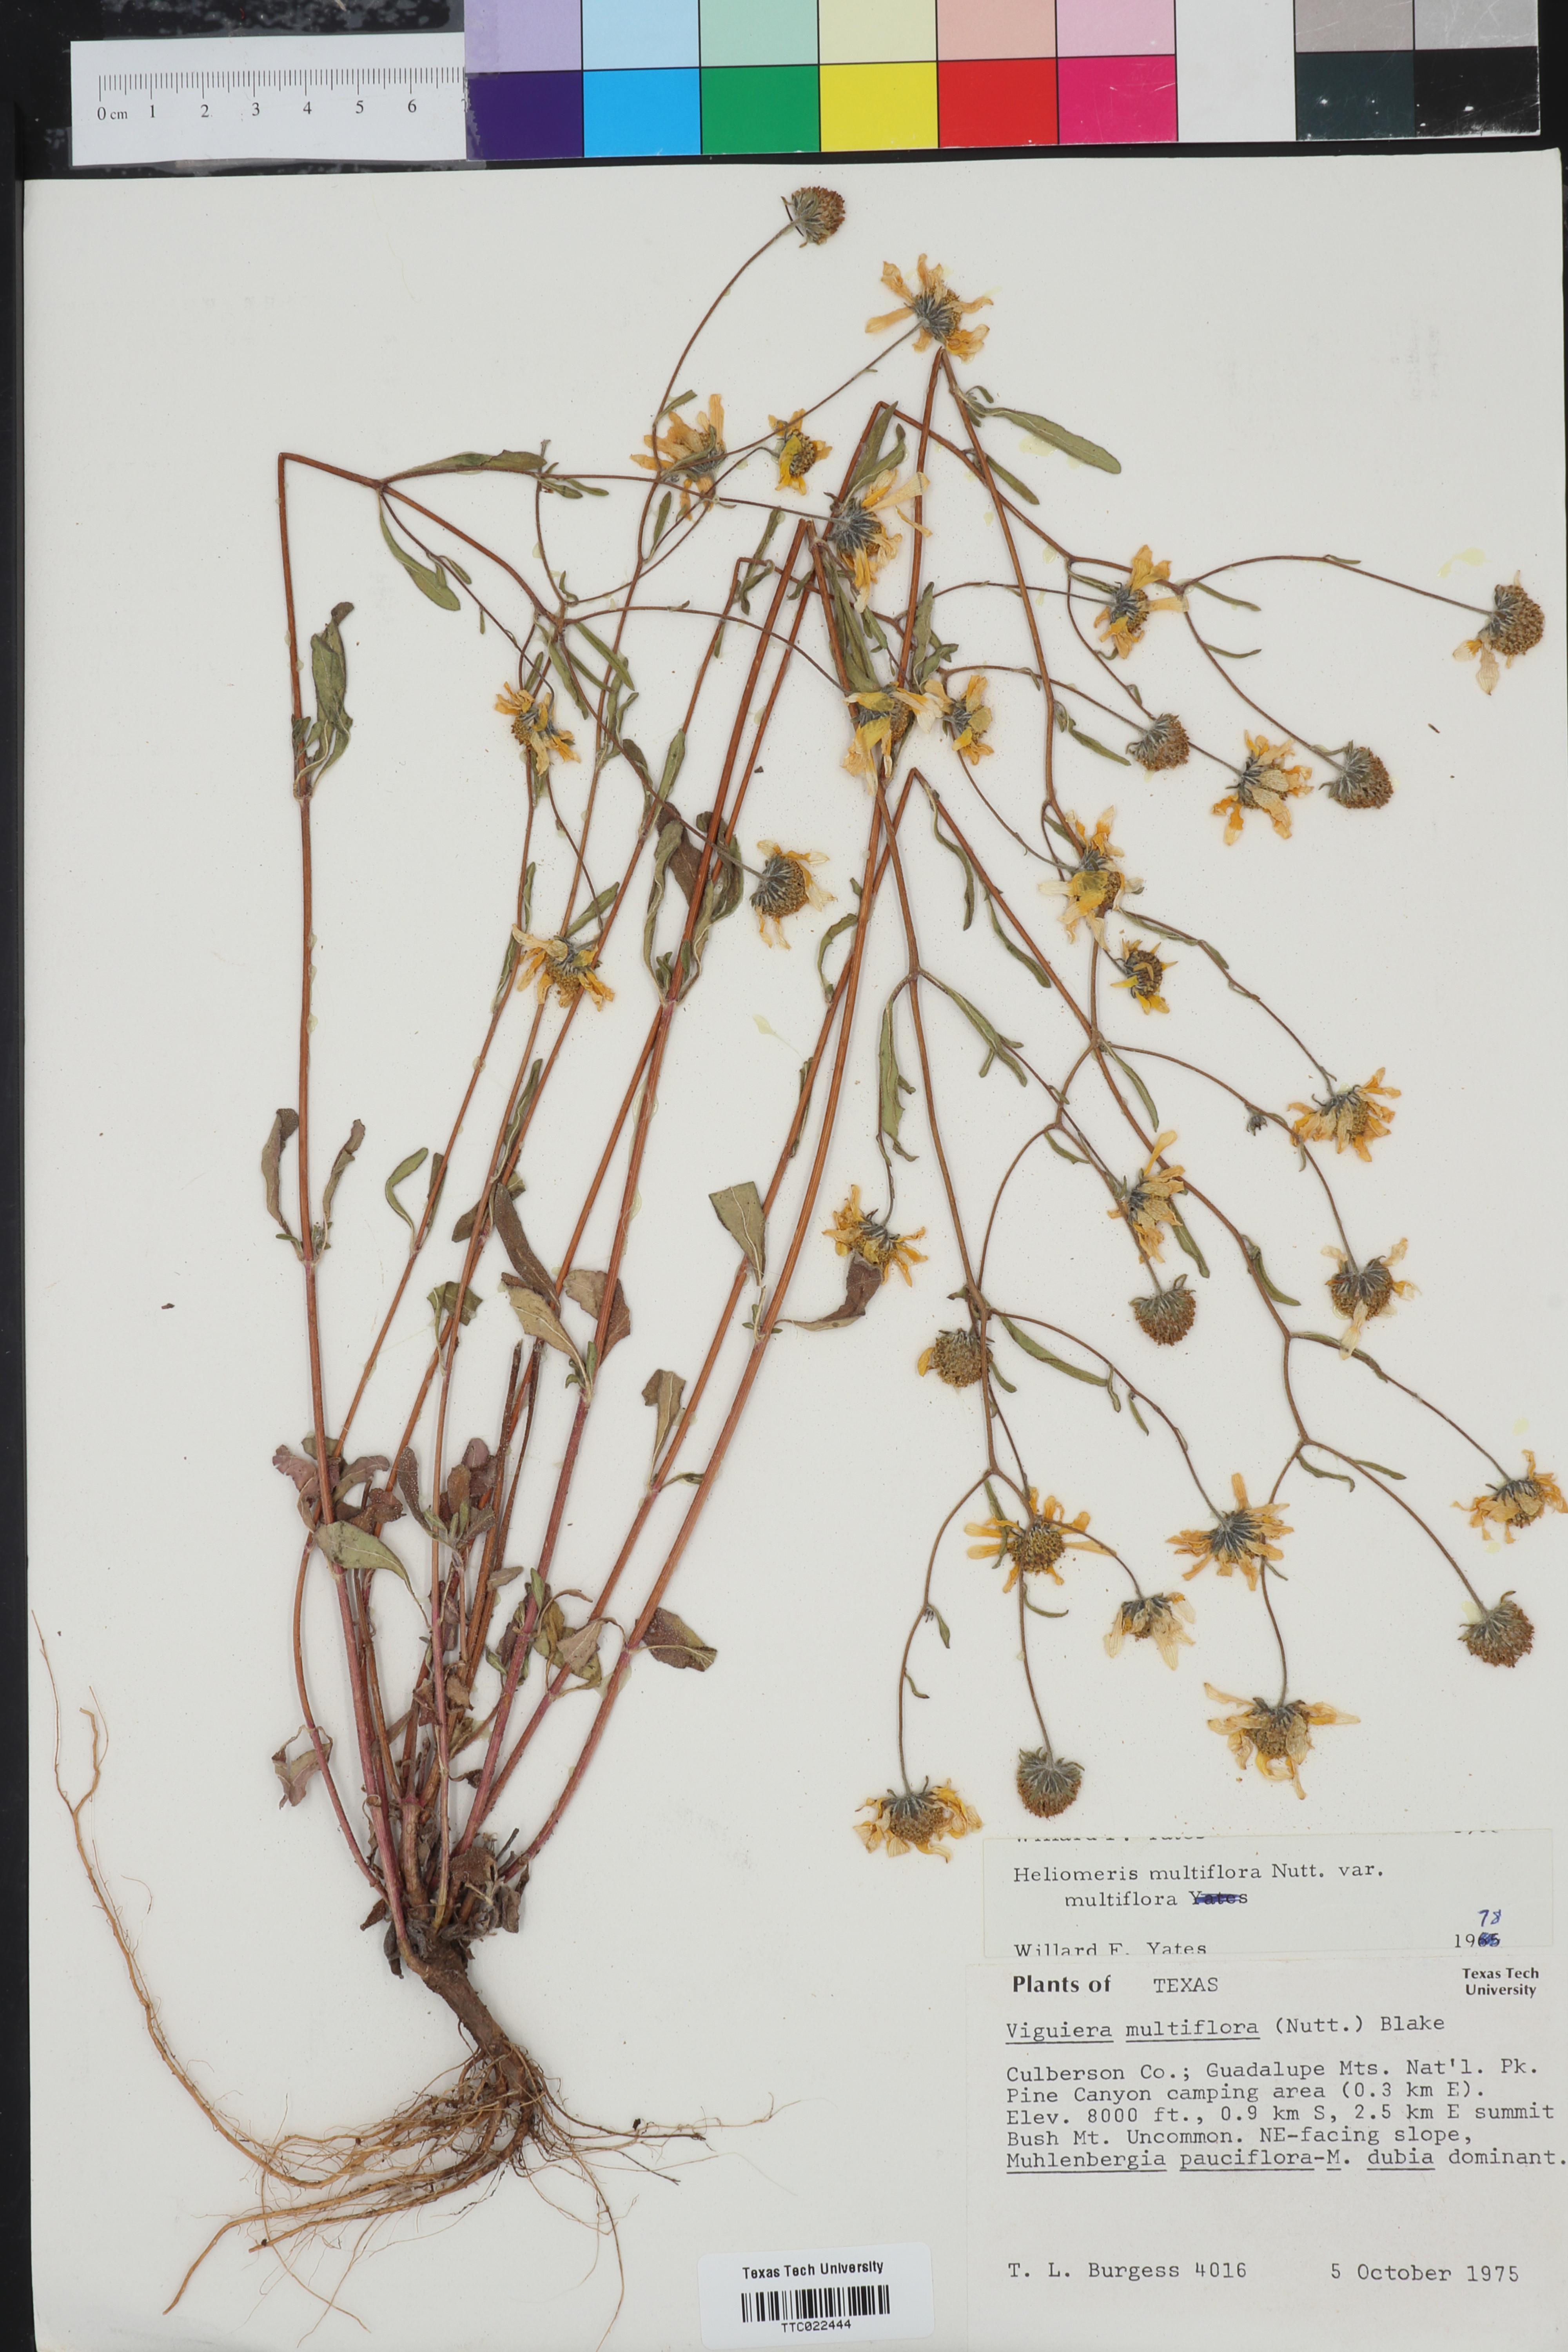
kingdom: Plantae
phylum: Tracheophyta
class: Magnoliopsida
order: Asterales
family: Asteraceae
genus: Heliomeris
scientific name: Heliomeris multiflora
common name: Showy goldeneye
